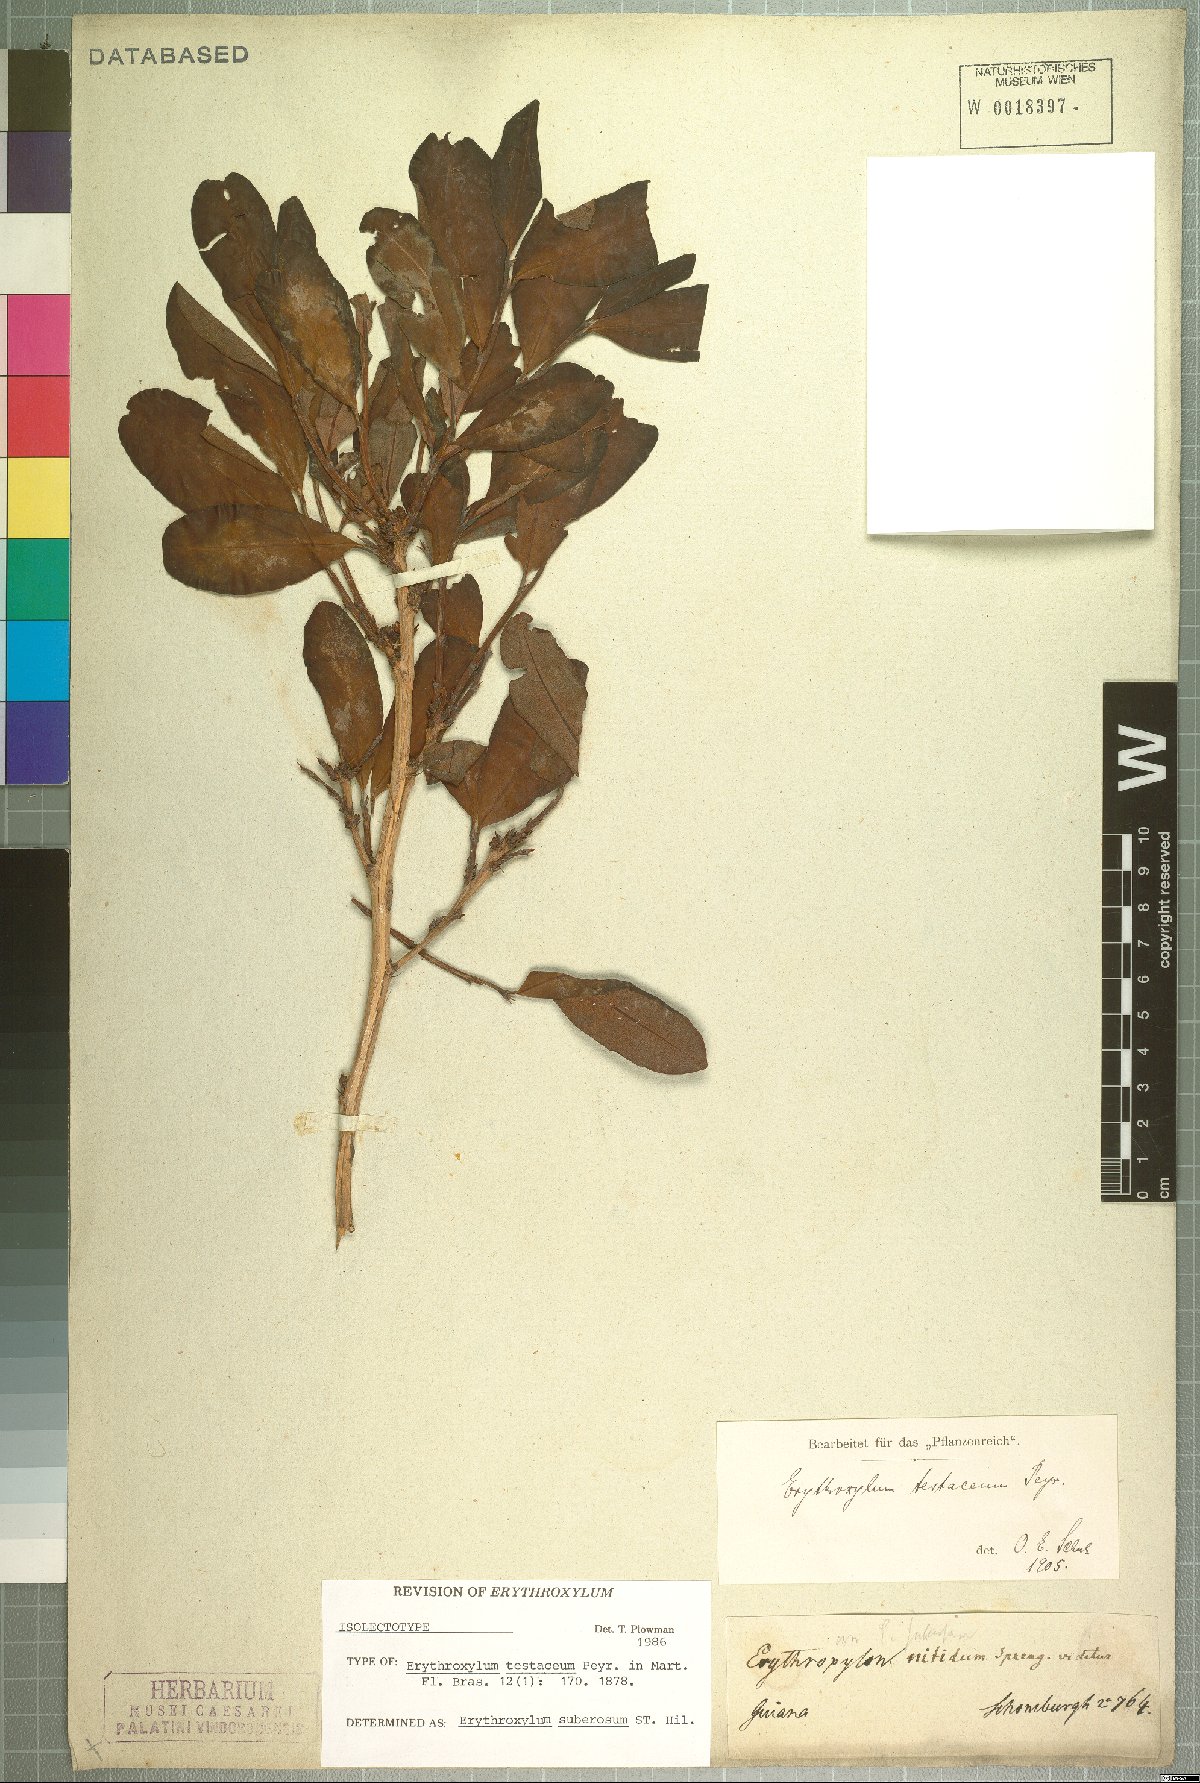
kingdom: Plantae
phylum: Tracheophyta
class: Magnoliopsida
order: Malpighiales
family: Erythroxylaceae
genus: Erythroxylum
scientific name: Erythroxylum suberosum
